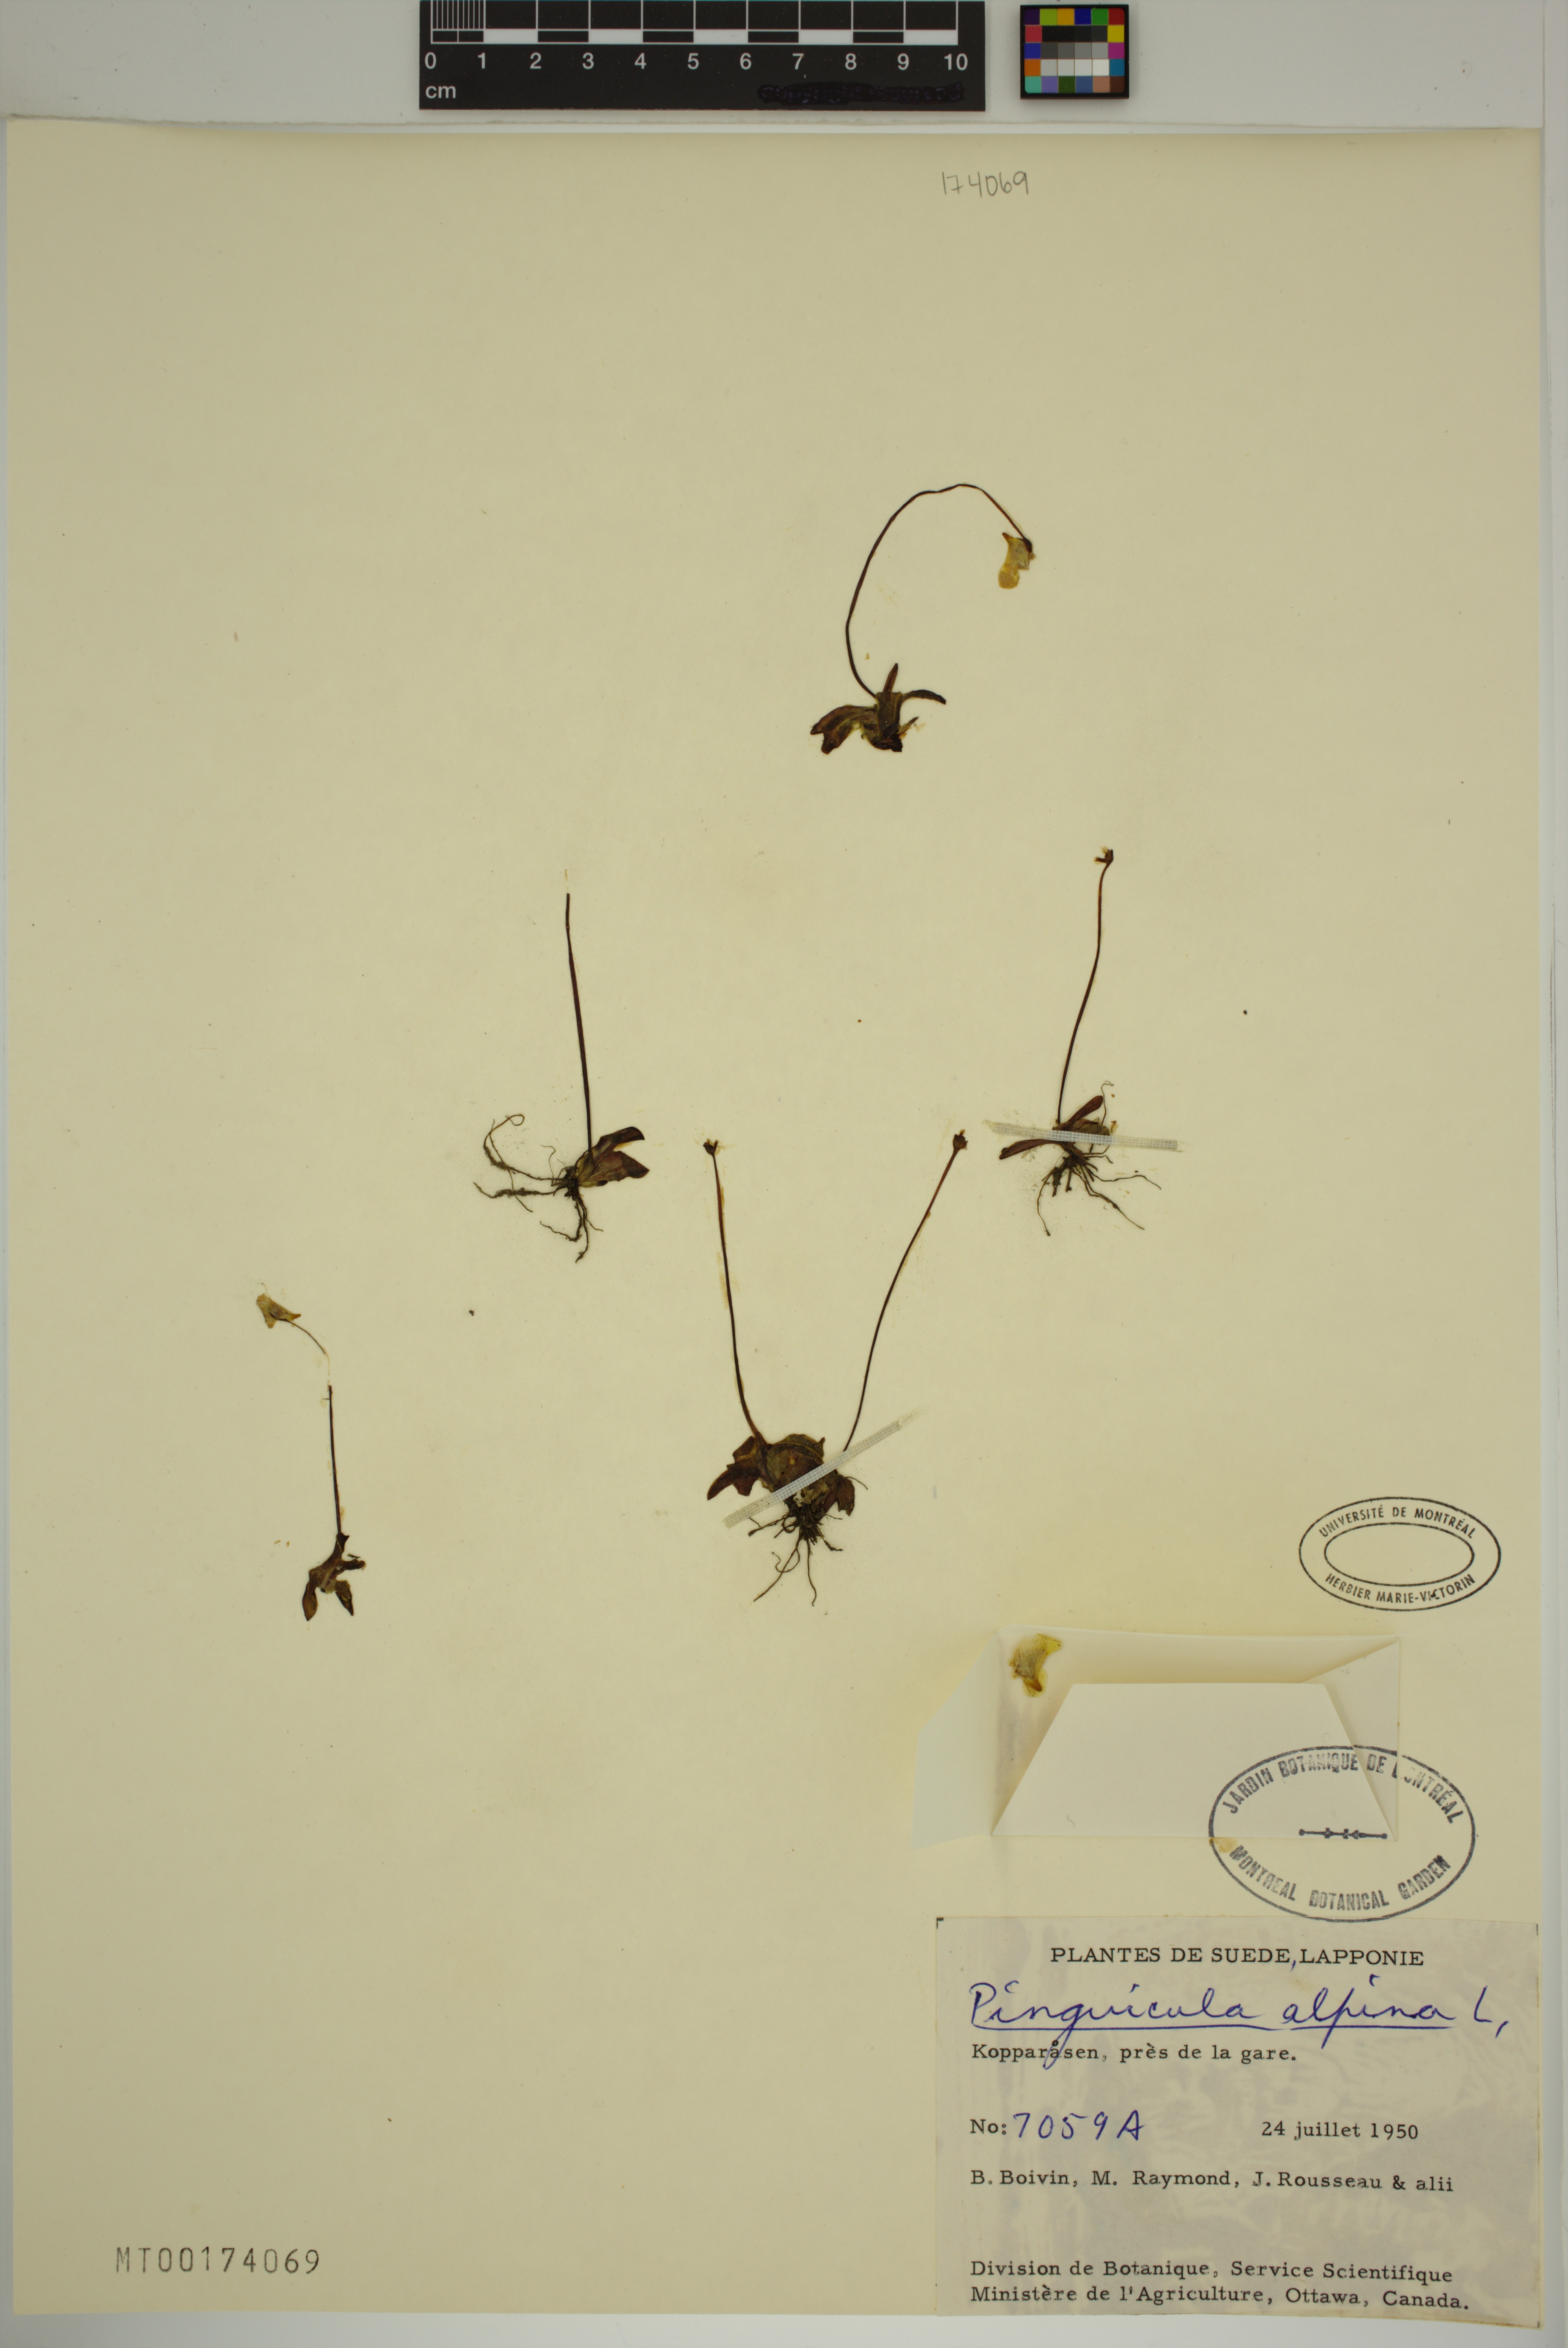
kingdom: Plantae
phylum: Tracheophyta
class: Magnoliopsida
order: Lamiales
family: Lentibulariaceae
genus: Pinguicula
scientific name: Pinguicula alpina
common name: Alpine butterwort
